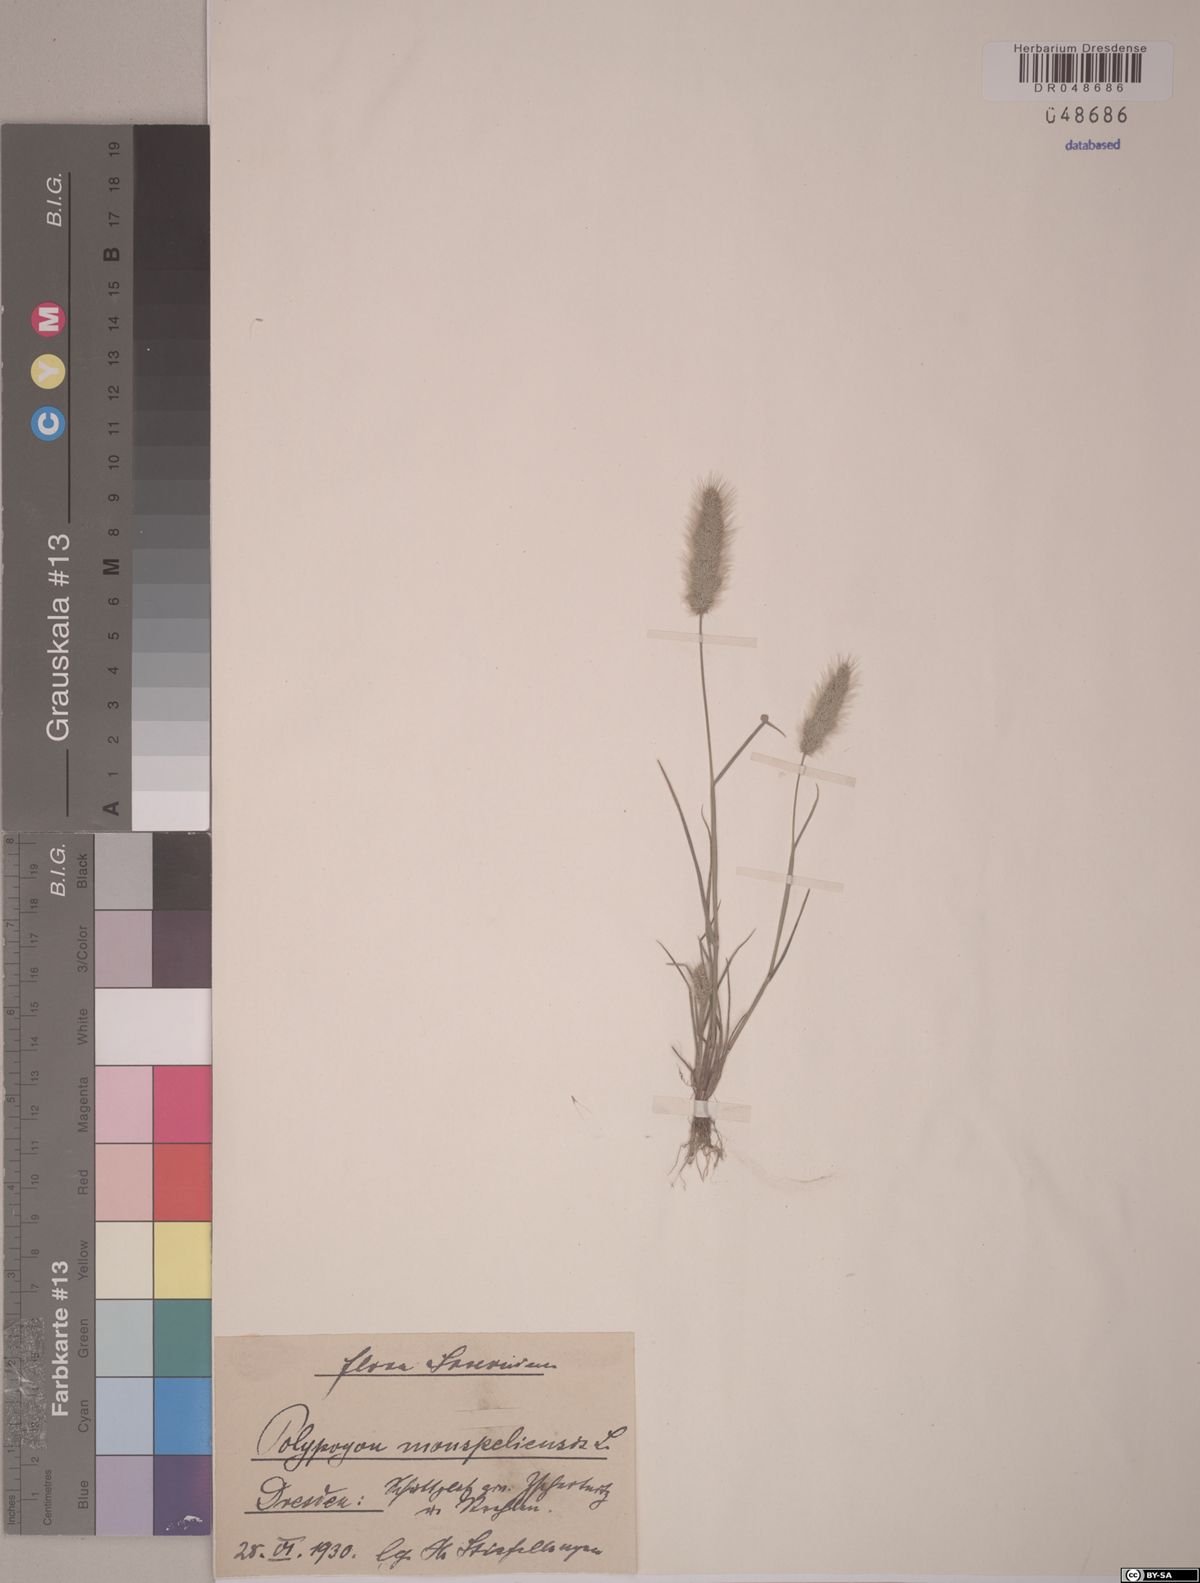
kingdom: Plantae
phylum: Tracheophyta
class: Liliopsida
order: Poales
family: Poaceae
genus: Polypogon
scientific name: Polypogon monspeliensis
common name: Annual rabbitsfoot grass
